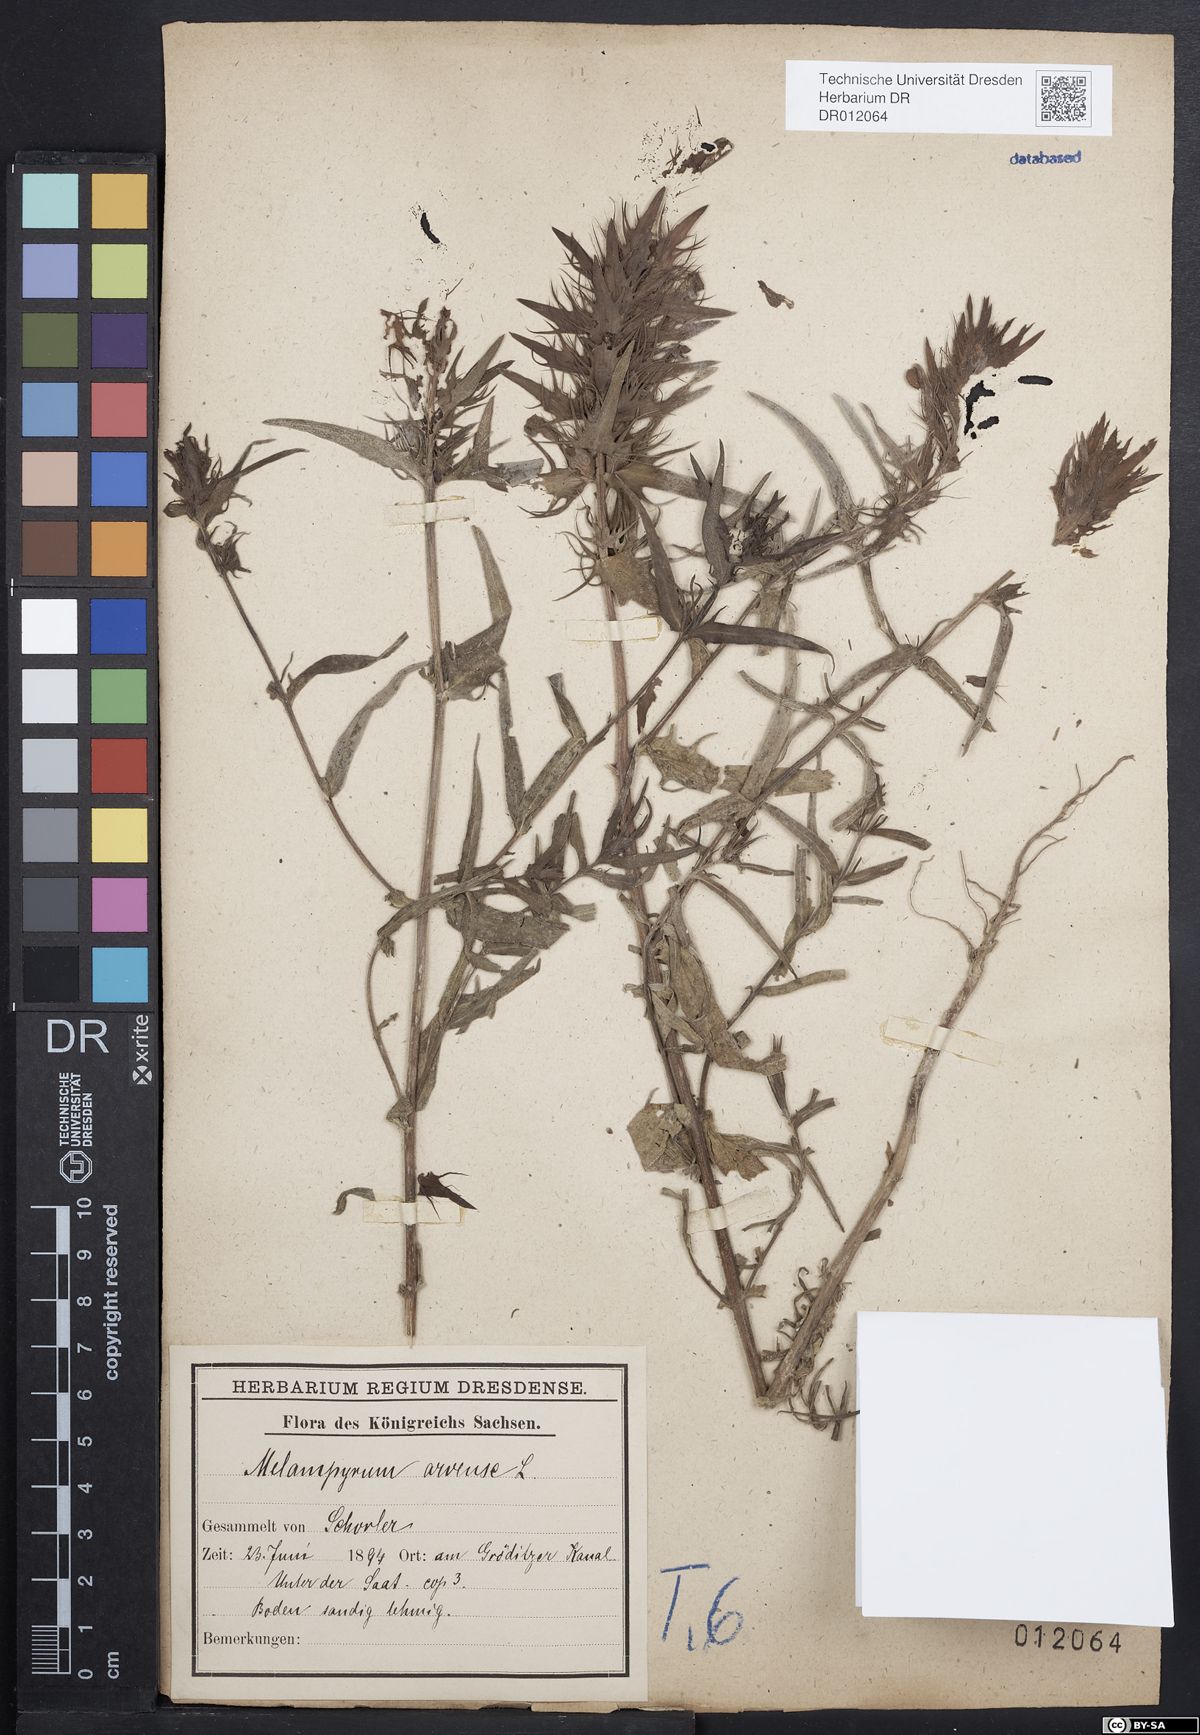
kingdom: Plantae
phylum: Tracheophyta
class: Magnoliopsida
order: Lamiales
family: Orobanchaceae
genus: Melampyrum
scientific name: Melampyrum arvense
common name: Field cow-wheat
